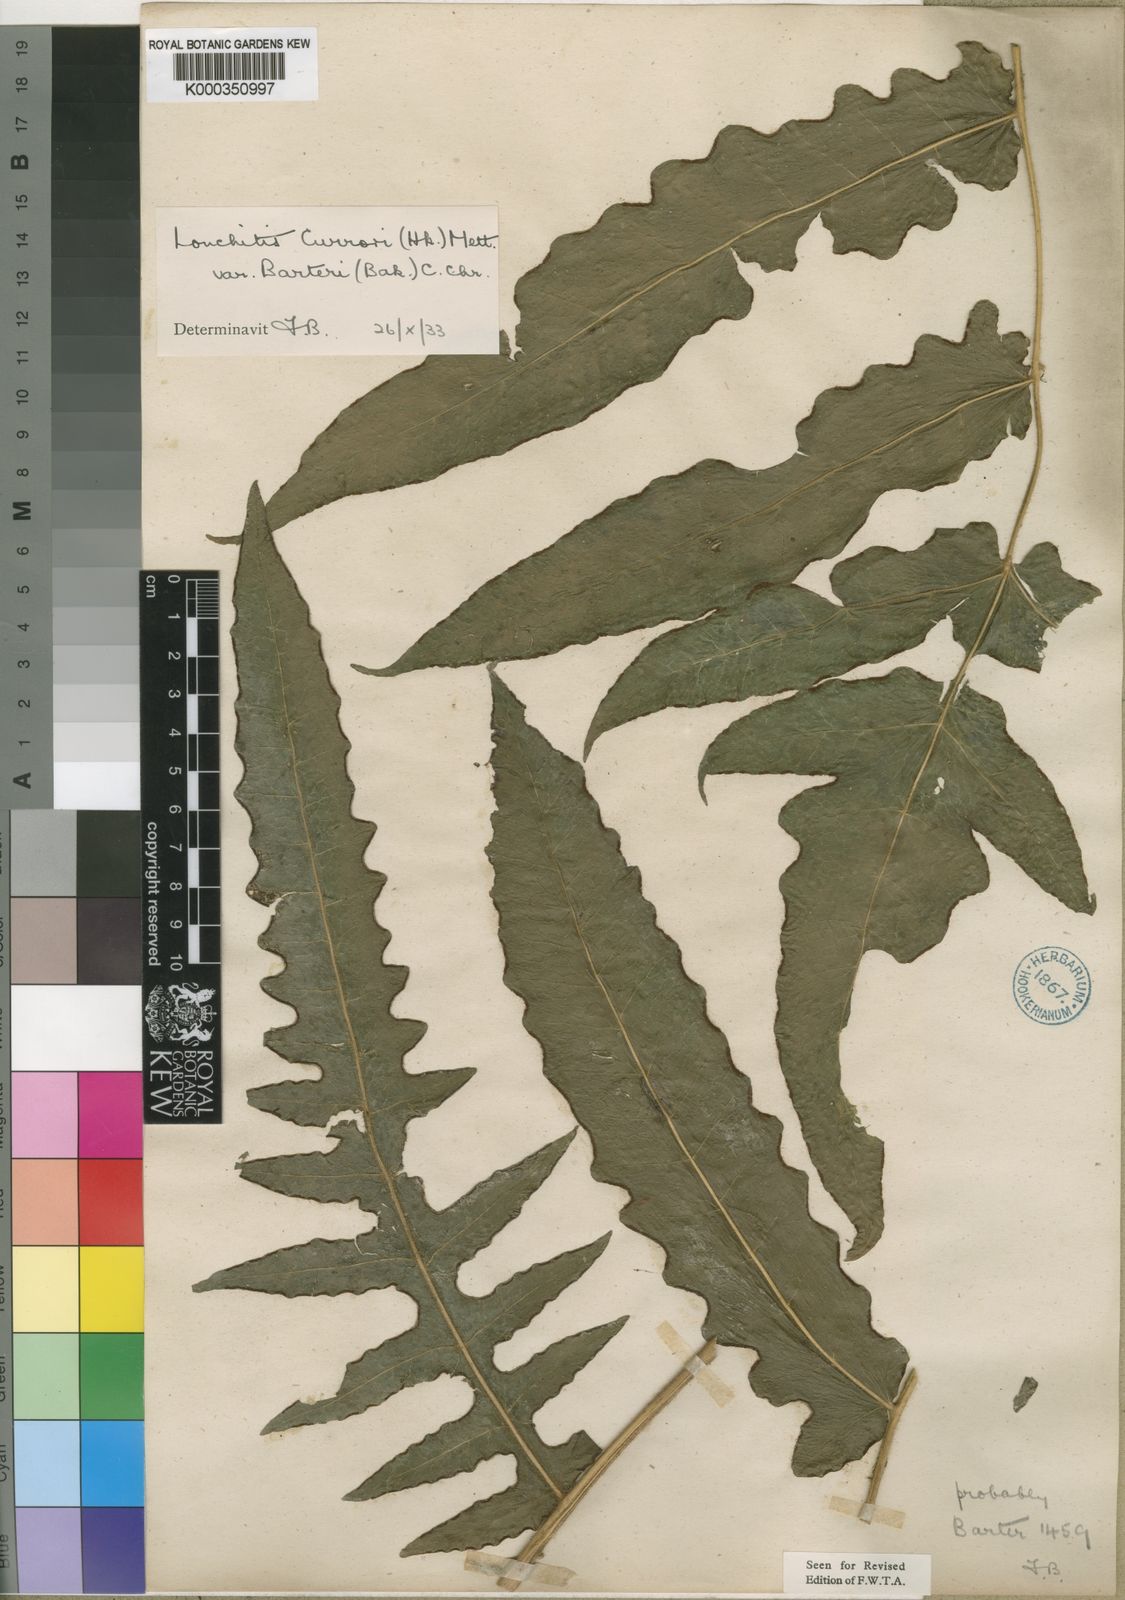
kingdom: Plantae
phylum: Tracheophyta
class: Polypodiopsida
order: Polypodiales
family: Dennstaedtiaceae
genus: Blotiella
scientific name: Blotiella currorii
